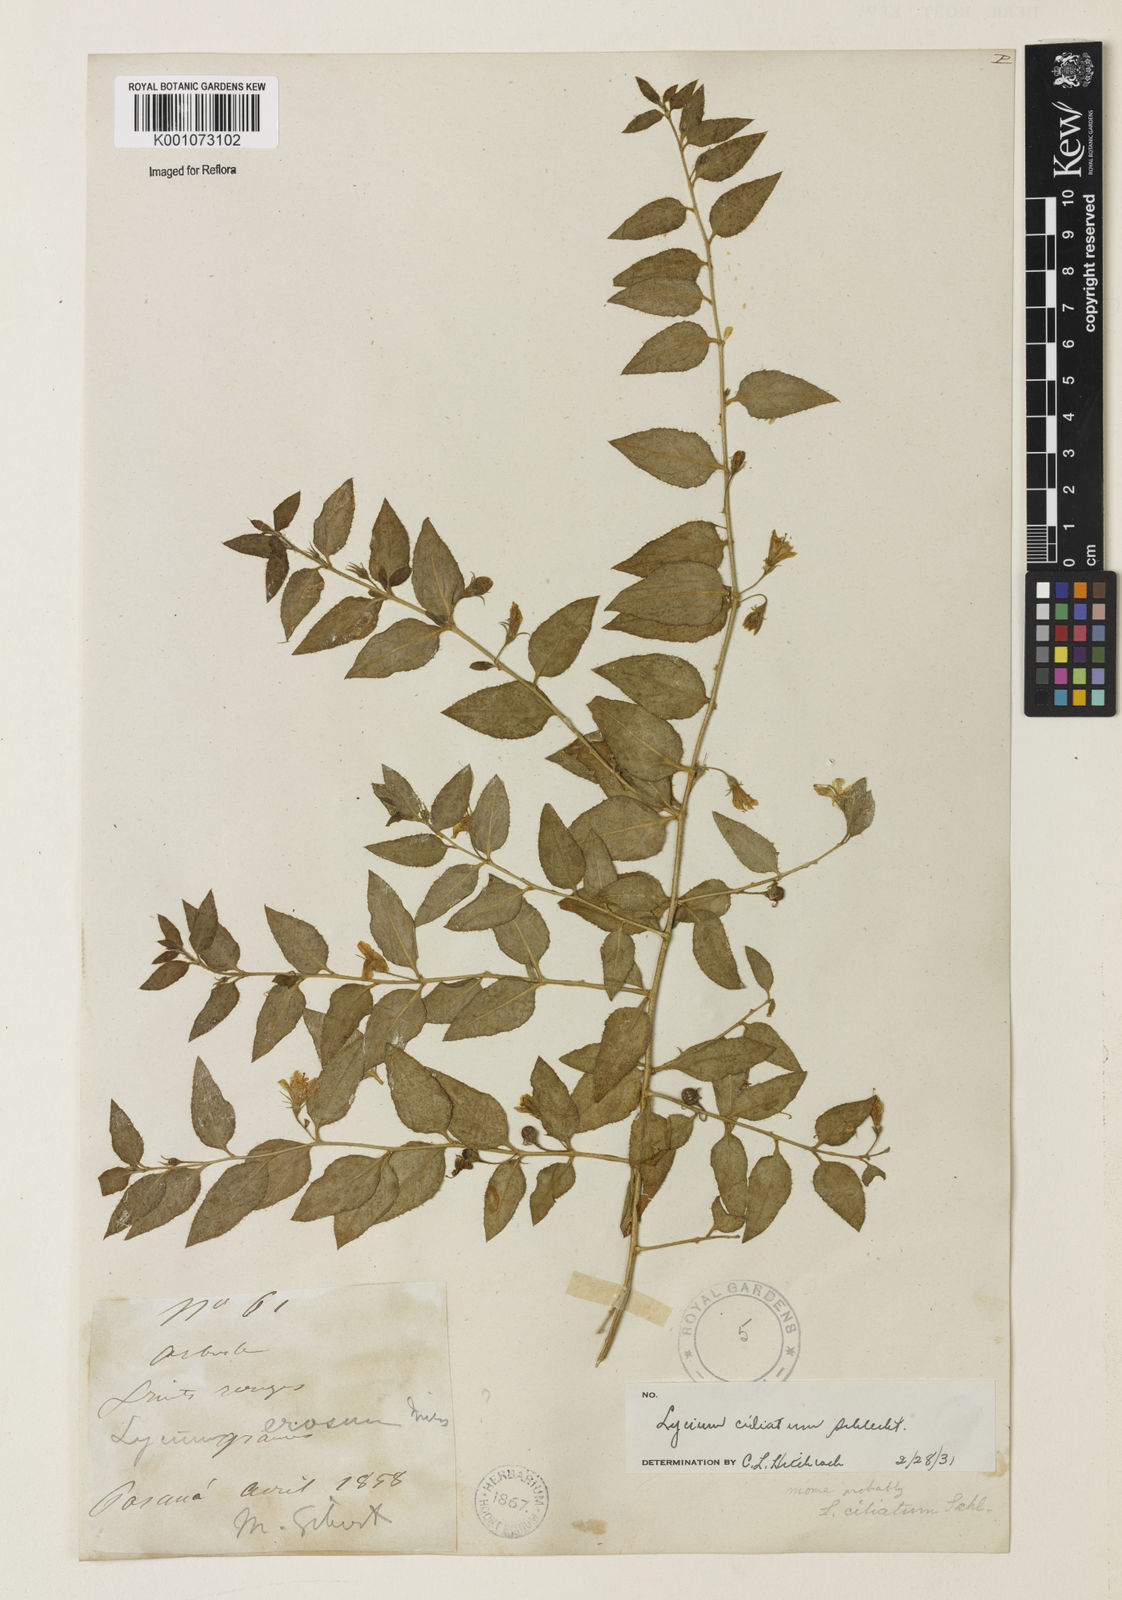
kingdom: Plantae
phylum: Tracheophyta
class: Magnoliopsida
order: Solanales
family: Solanaceae
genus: Lycium
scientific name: Lycium ciliatum
